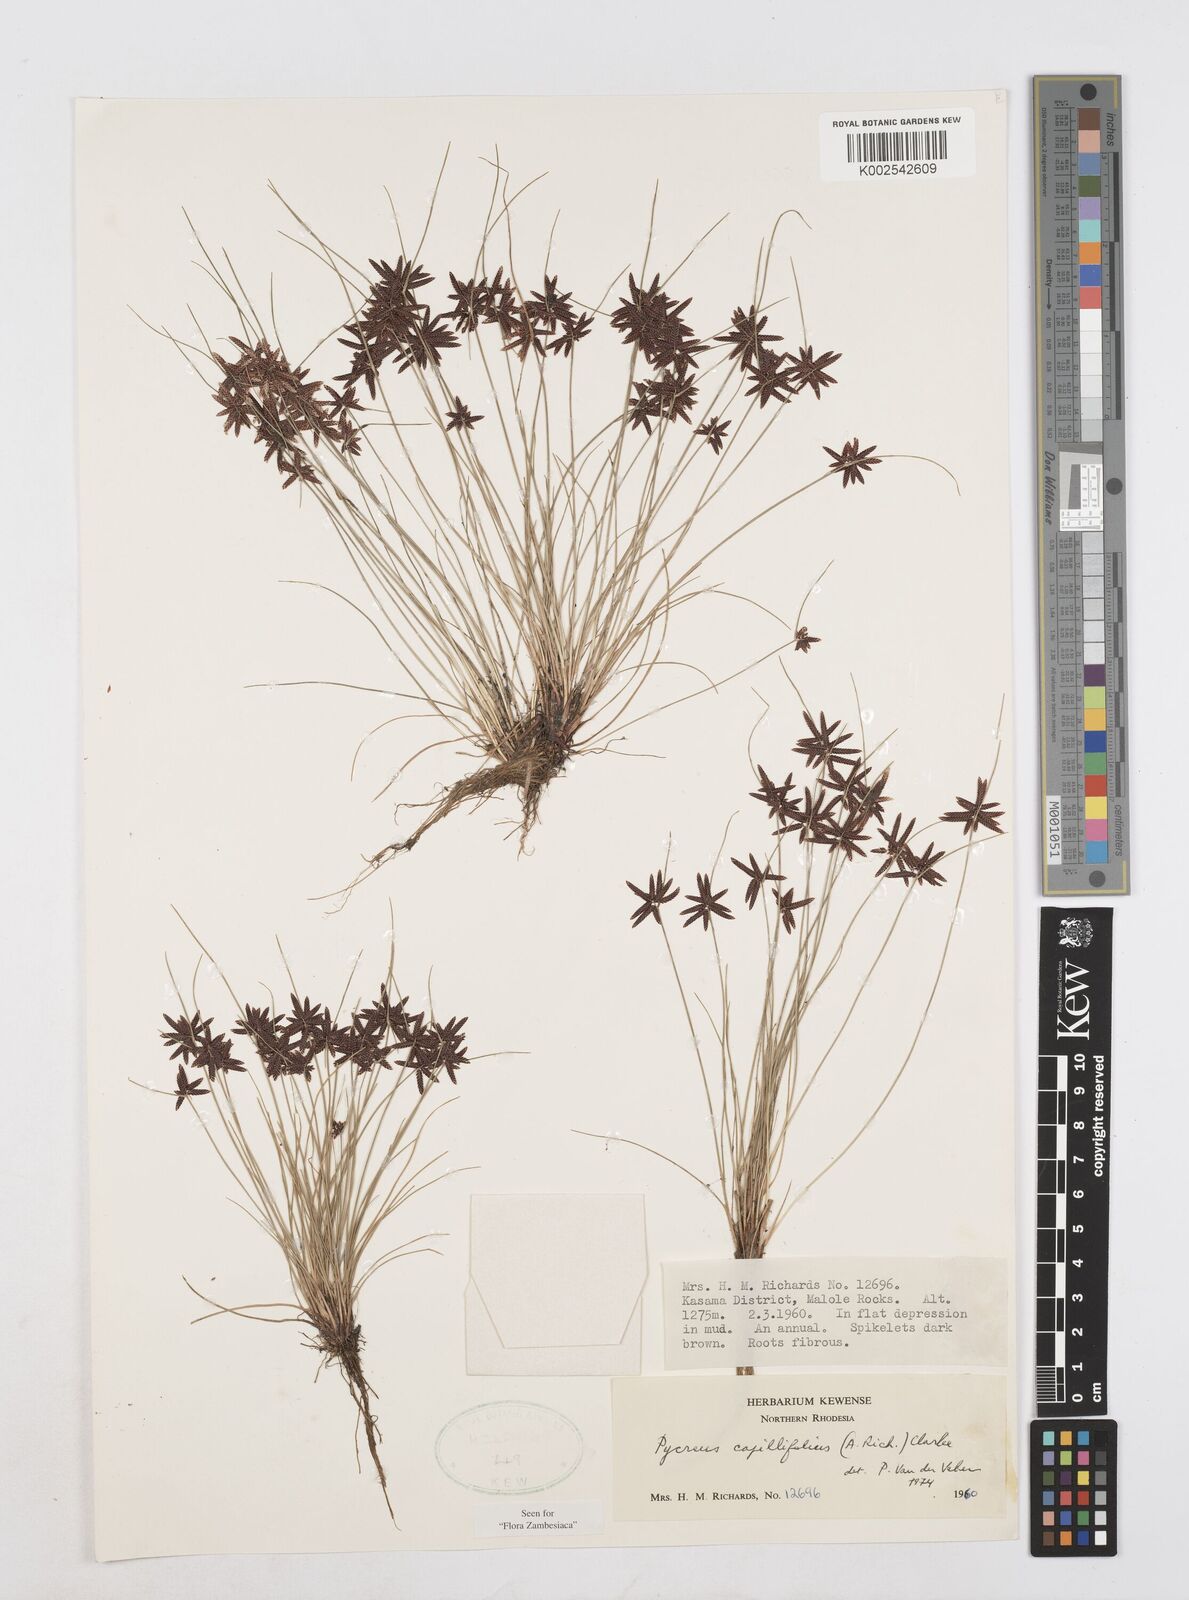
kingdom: Plantae
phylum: Tracheophyta
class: Liliopsida
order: Poales
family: Cyperaceae
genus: Cyperus
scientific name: Cyperus capillifolius
